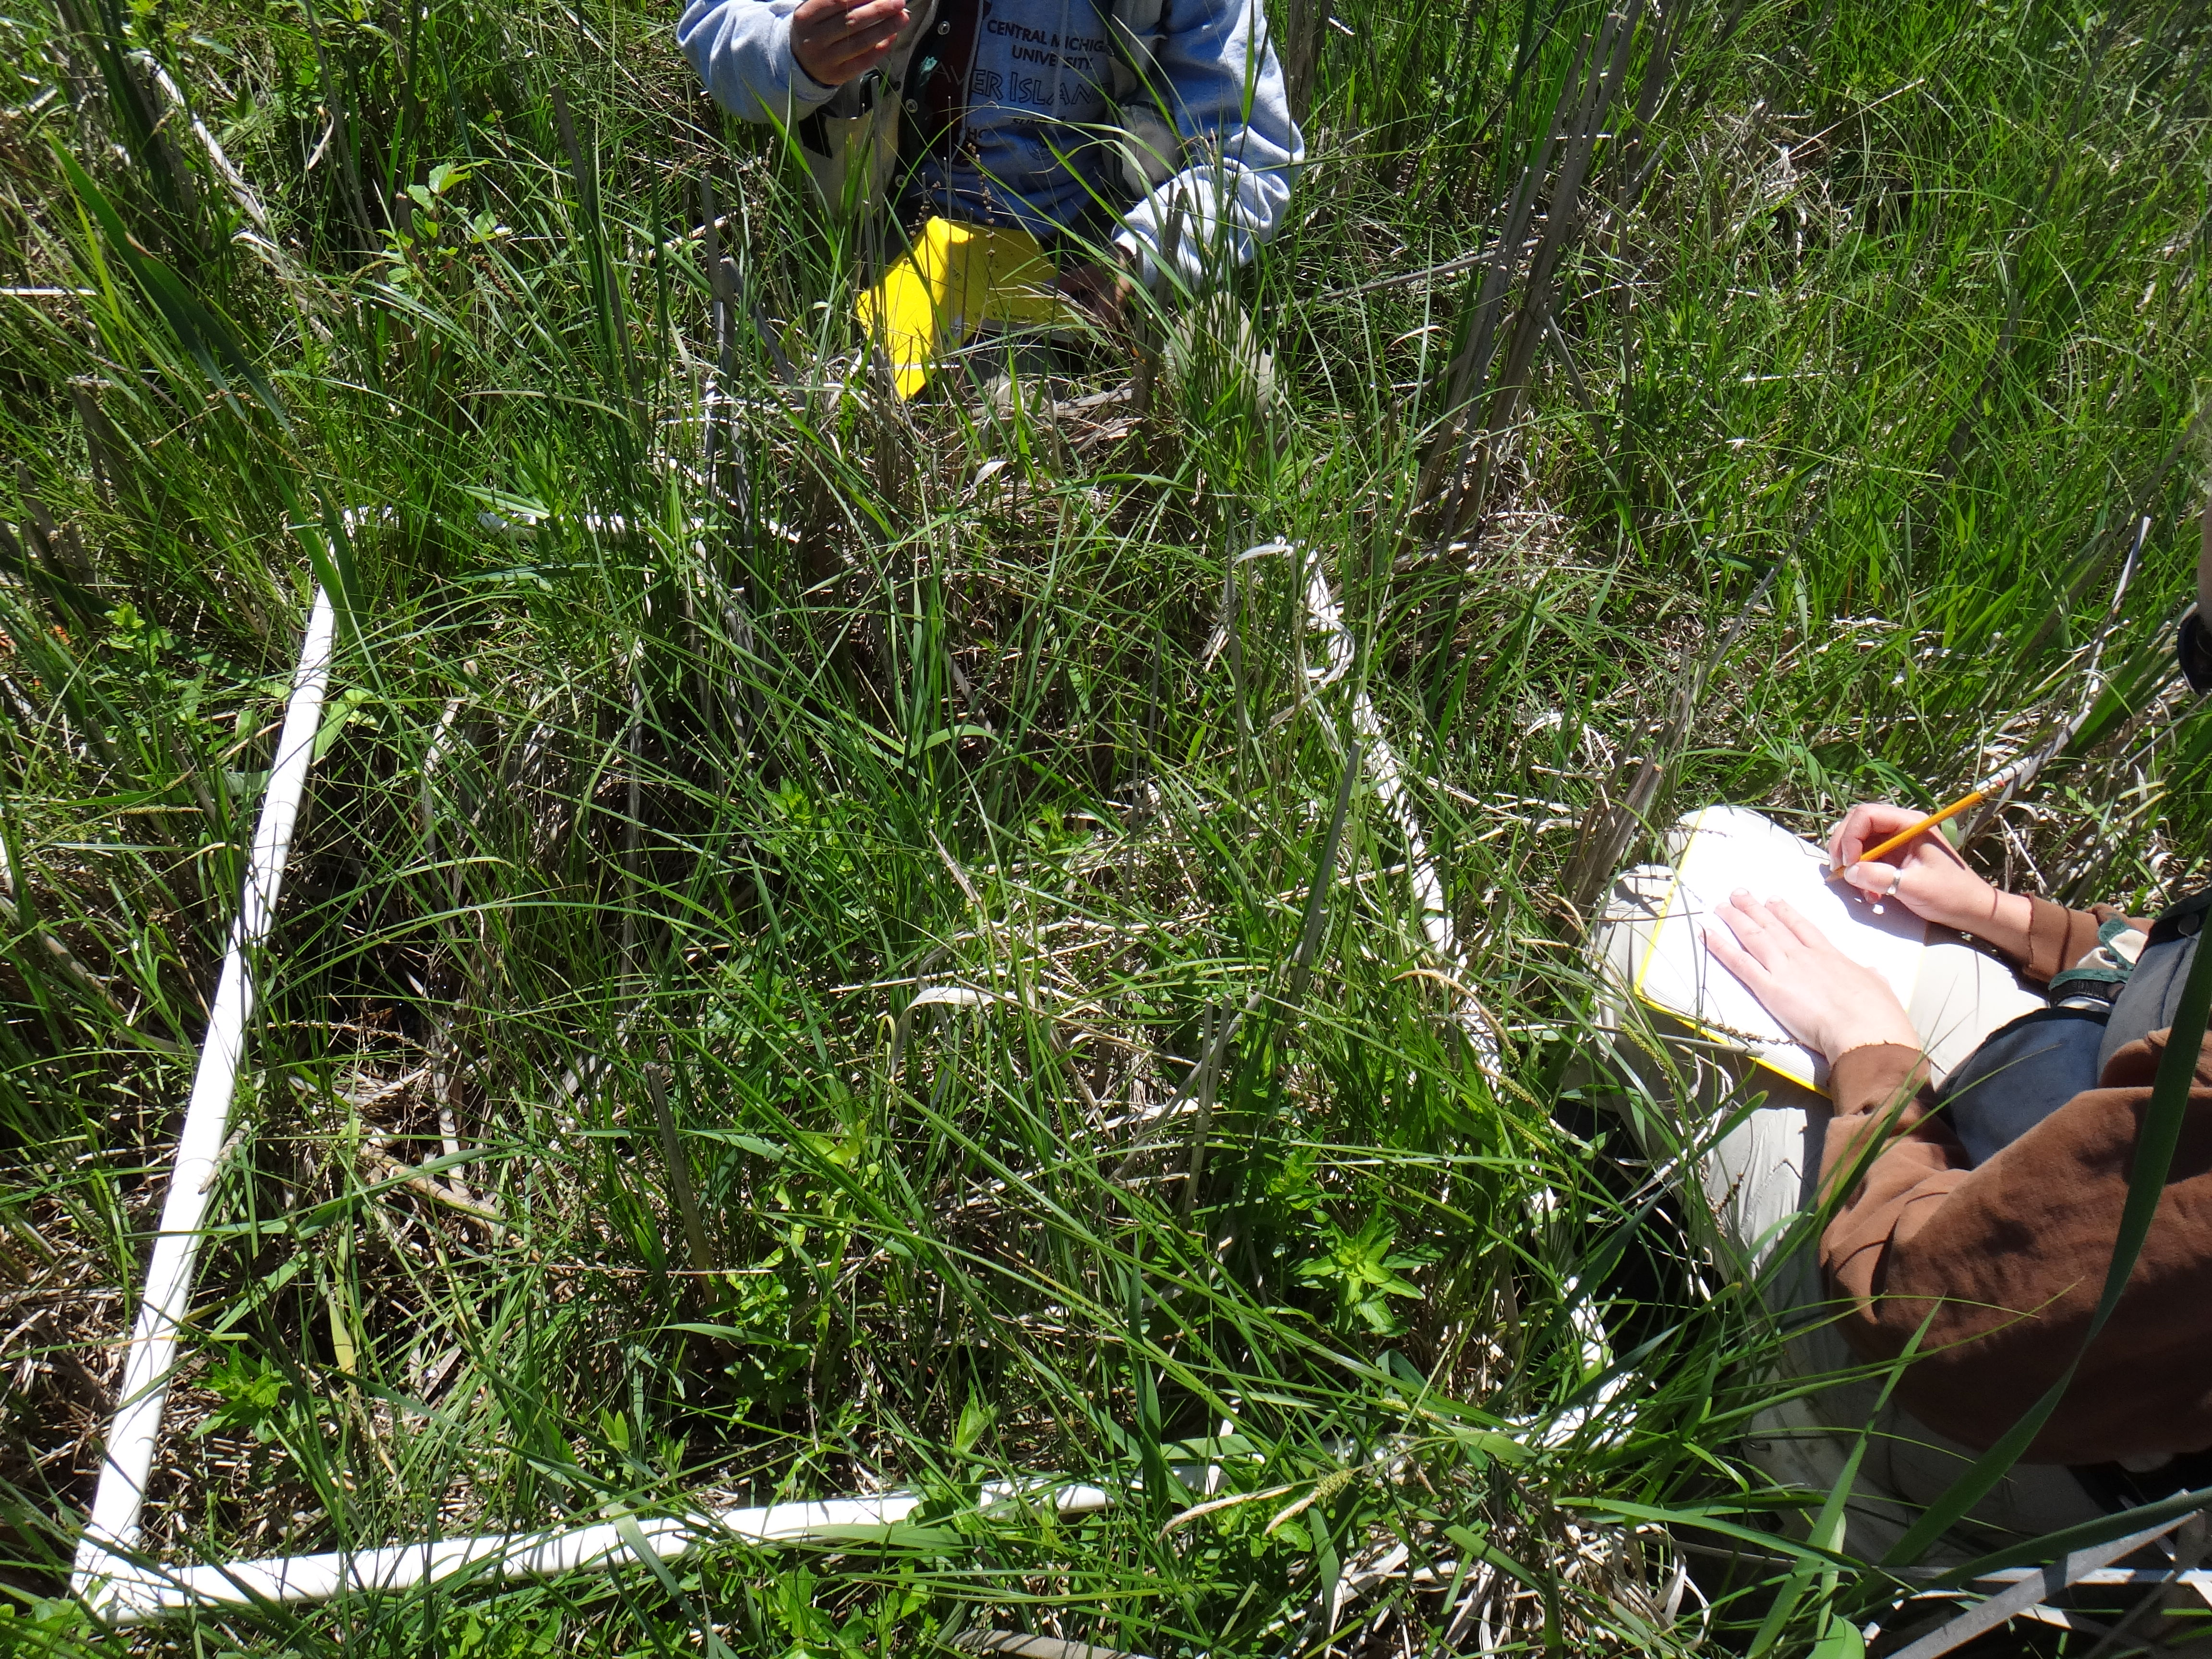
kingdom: Plantae
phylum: Tracheophyta
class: Liliopsida
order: Poales
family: Typhaceae
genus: Typha
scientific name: Typha latifolia
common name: Broadleaf cattail
